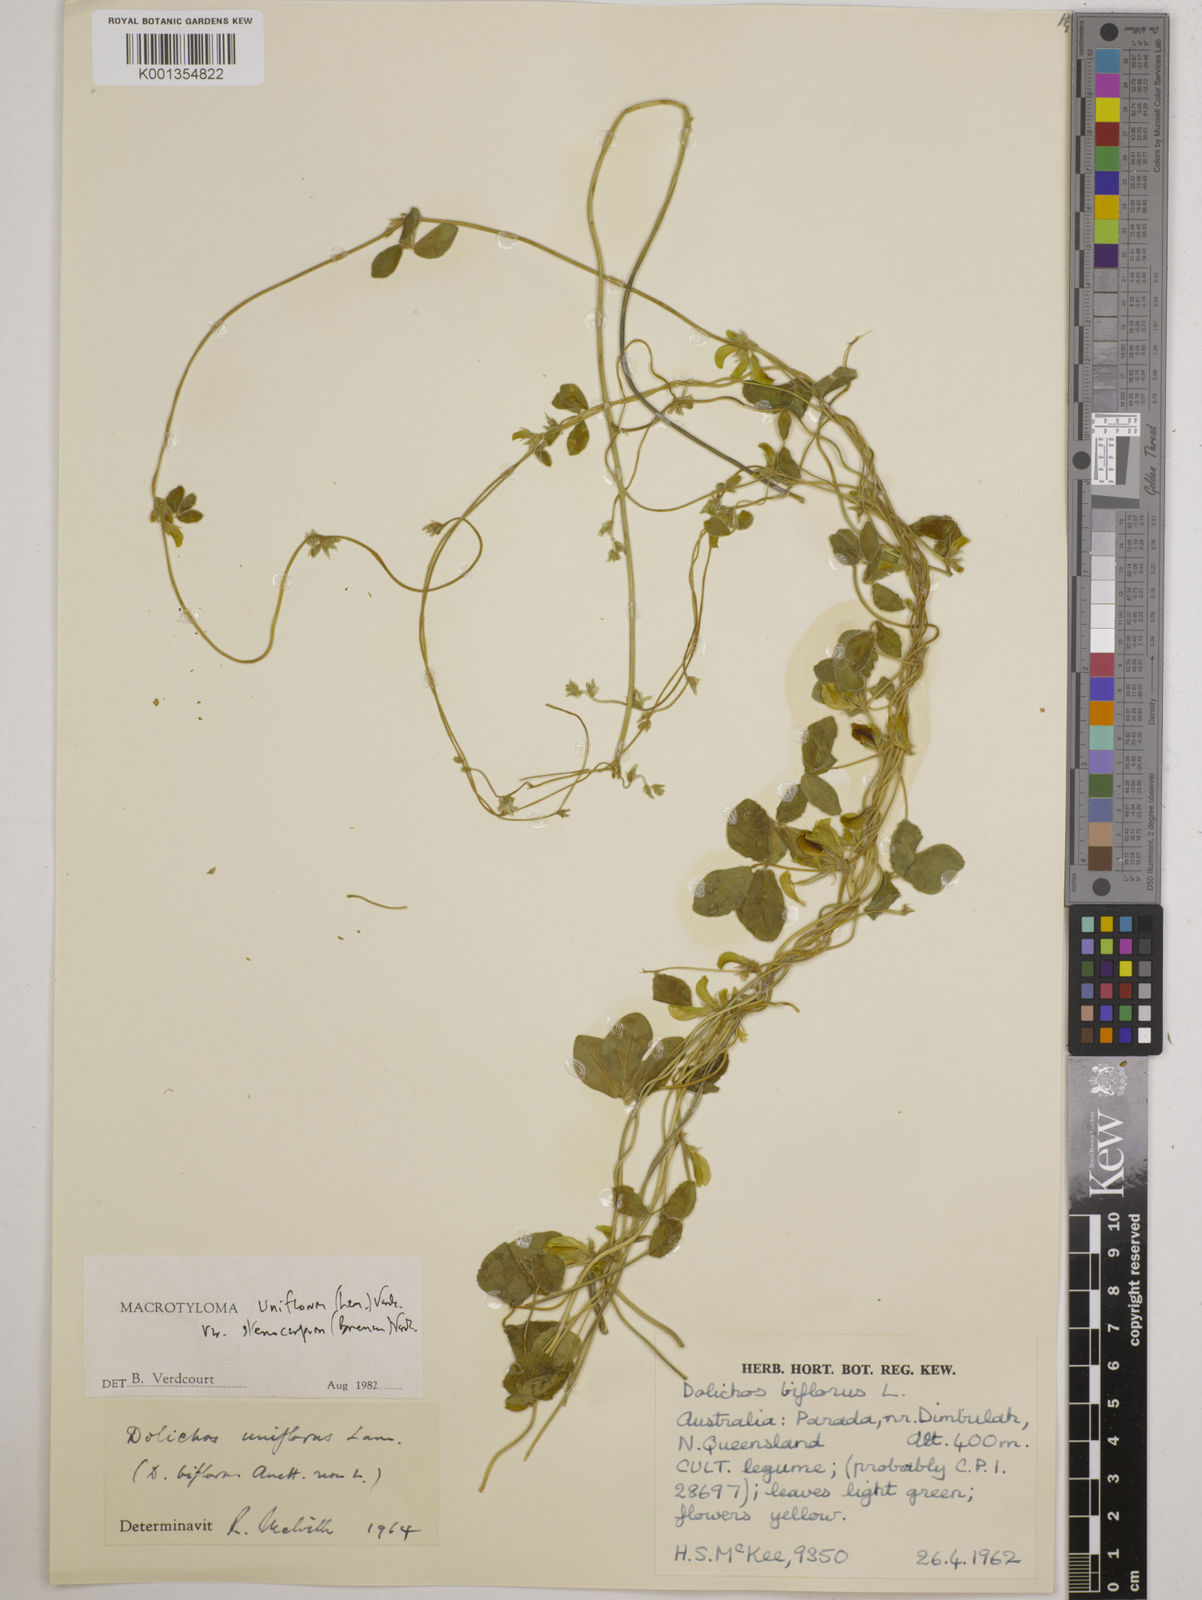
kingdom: Plantae
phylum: Tracheophyta
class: Magnoliopsida
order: Fabales
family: Fabaceae
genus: Macrotyloma
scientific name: Macrotyloma uniflorum
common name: Horse gram
